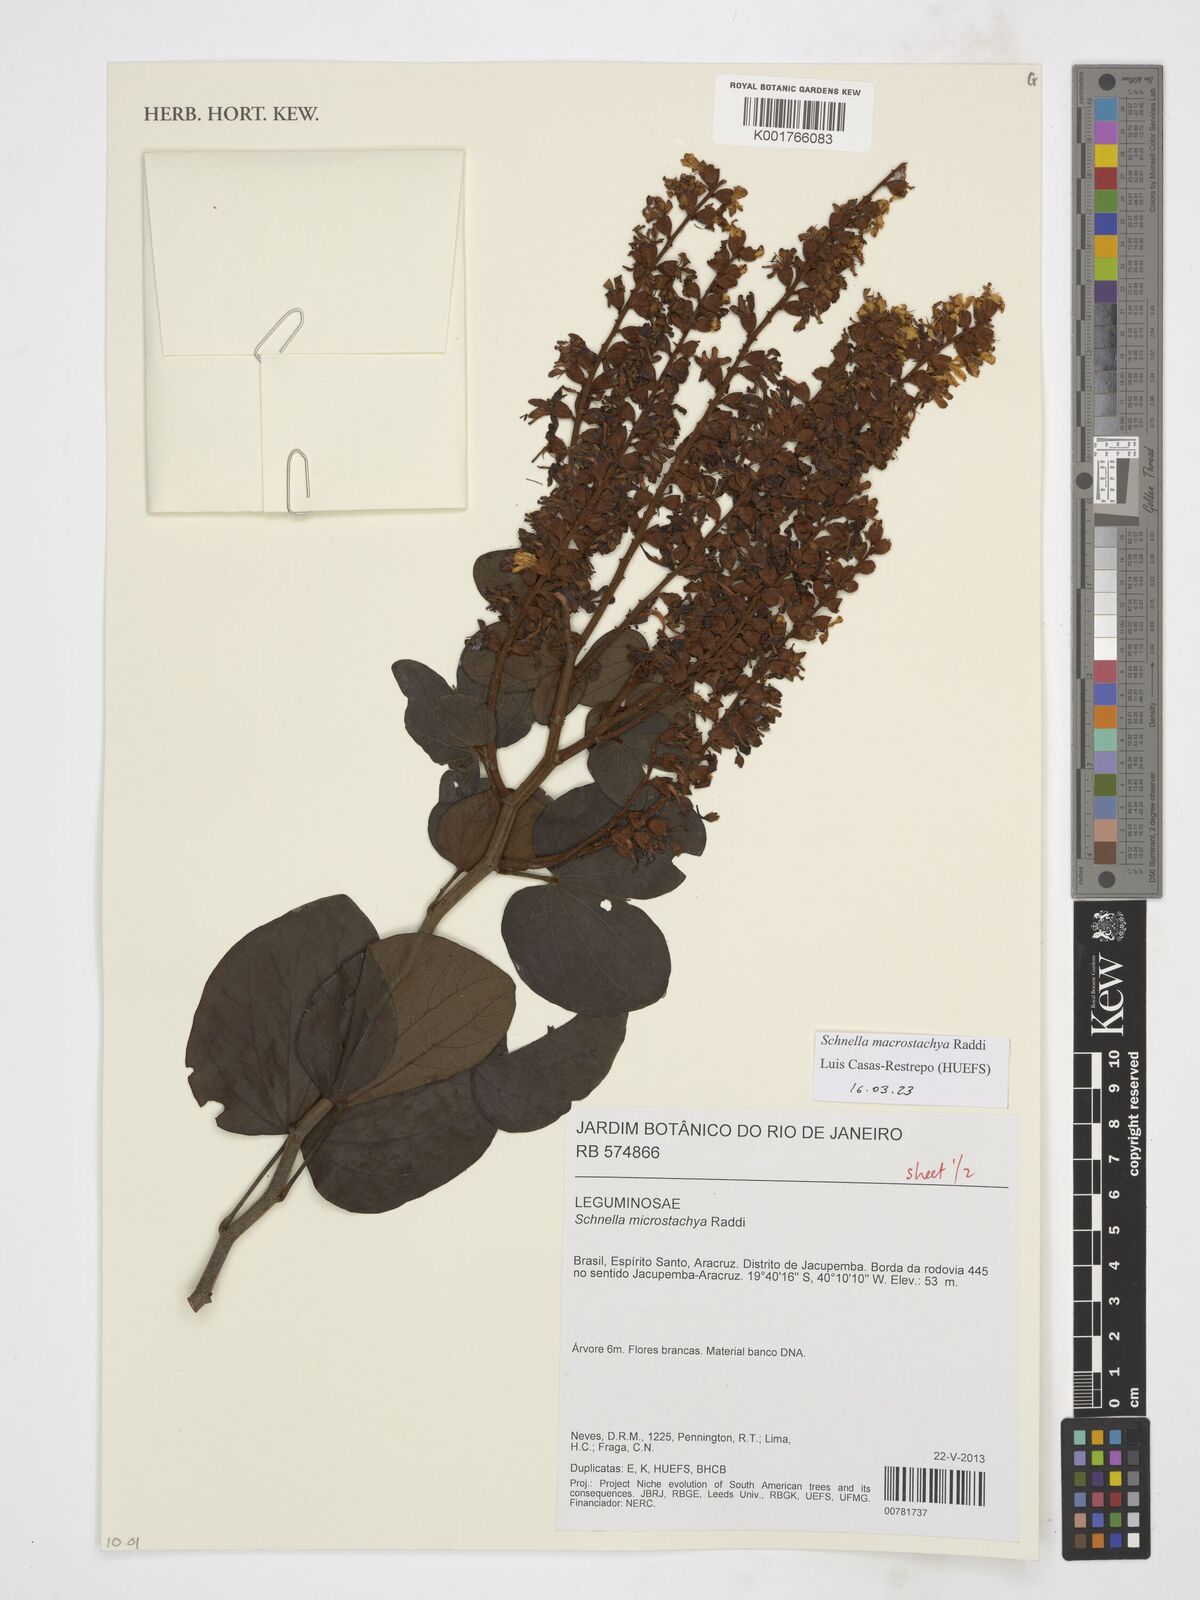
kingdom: Plantae
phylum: Tracheophyta
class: Magnoliopsida
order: Fabales
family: Fabaceae
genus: Schnella
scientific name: Schnella macrostachya
